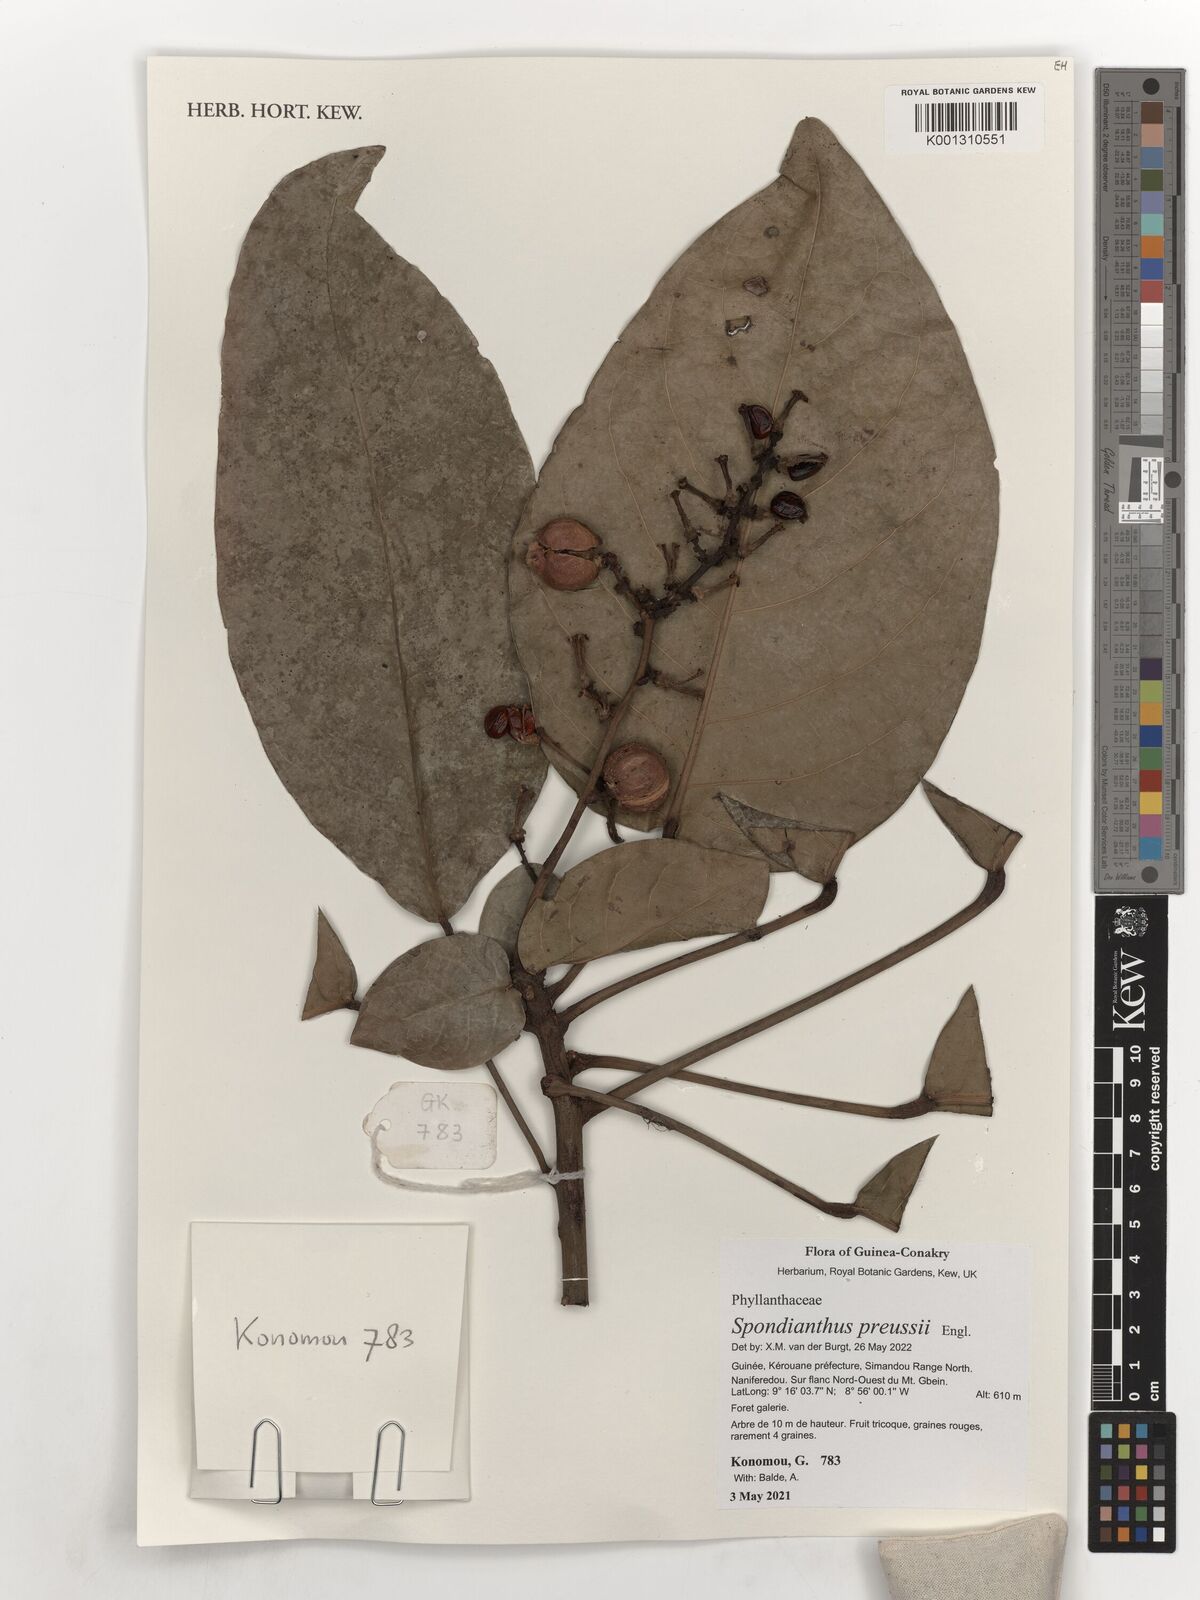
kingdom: Plantae
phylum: Tracheophyta
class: Magnoliopsida
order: Malpighiales
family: Phyllanthaceae
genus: Spondianthus
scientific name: Spondianthus preussii
